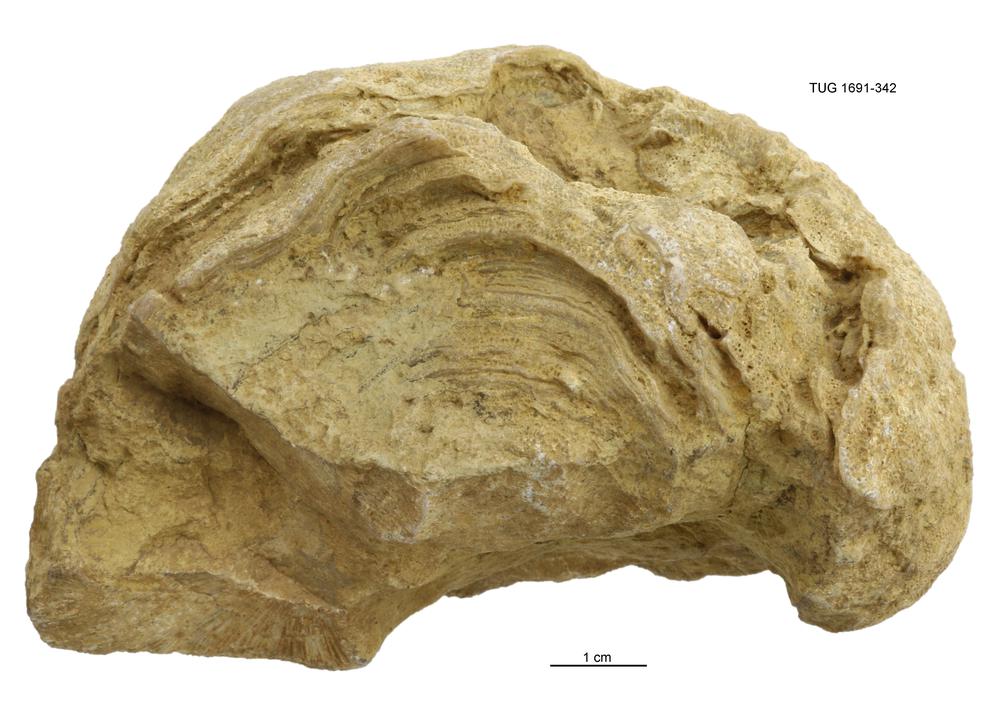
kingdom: Animalia
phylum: Bryozoa
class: Stenolaemata
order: Trepostomatida
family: Diplotrypidae
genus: Diplotrypa
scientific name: Diplotrypa
